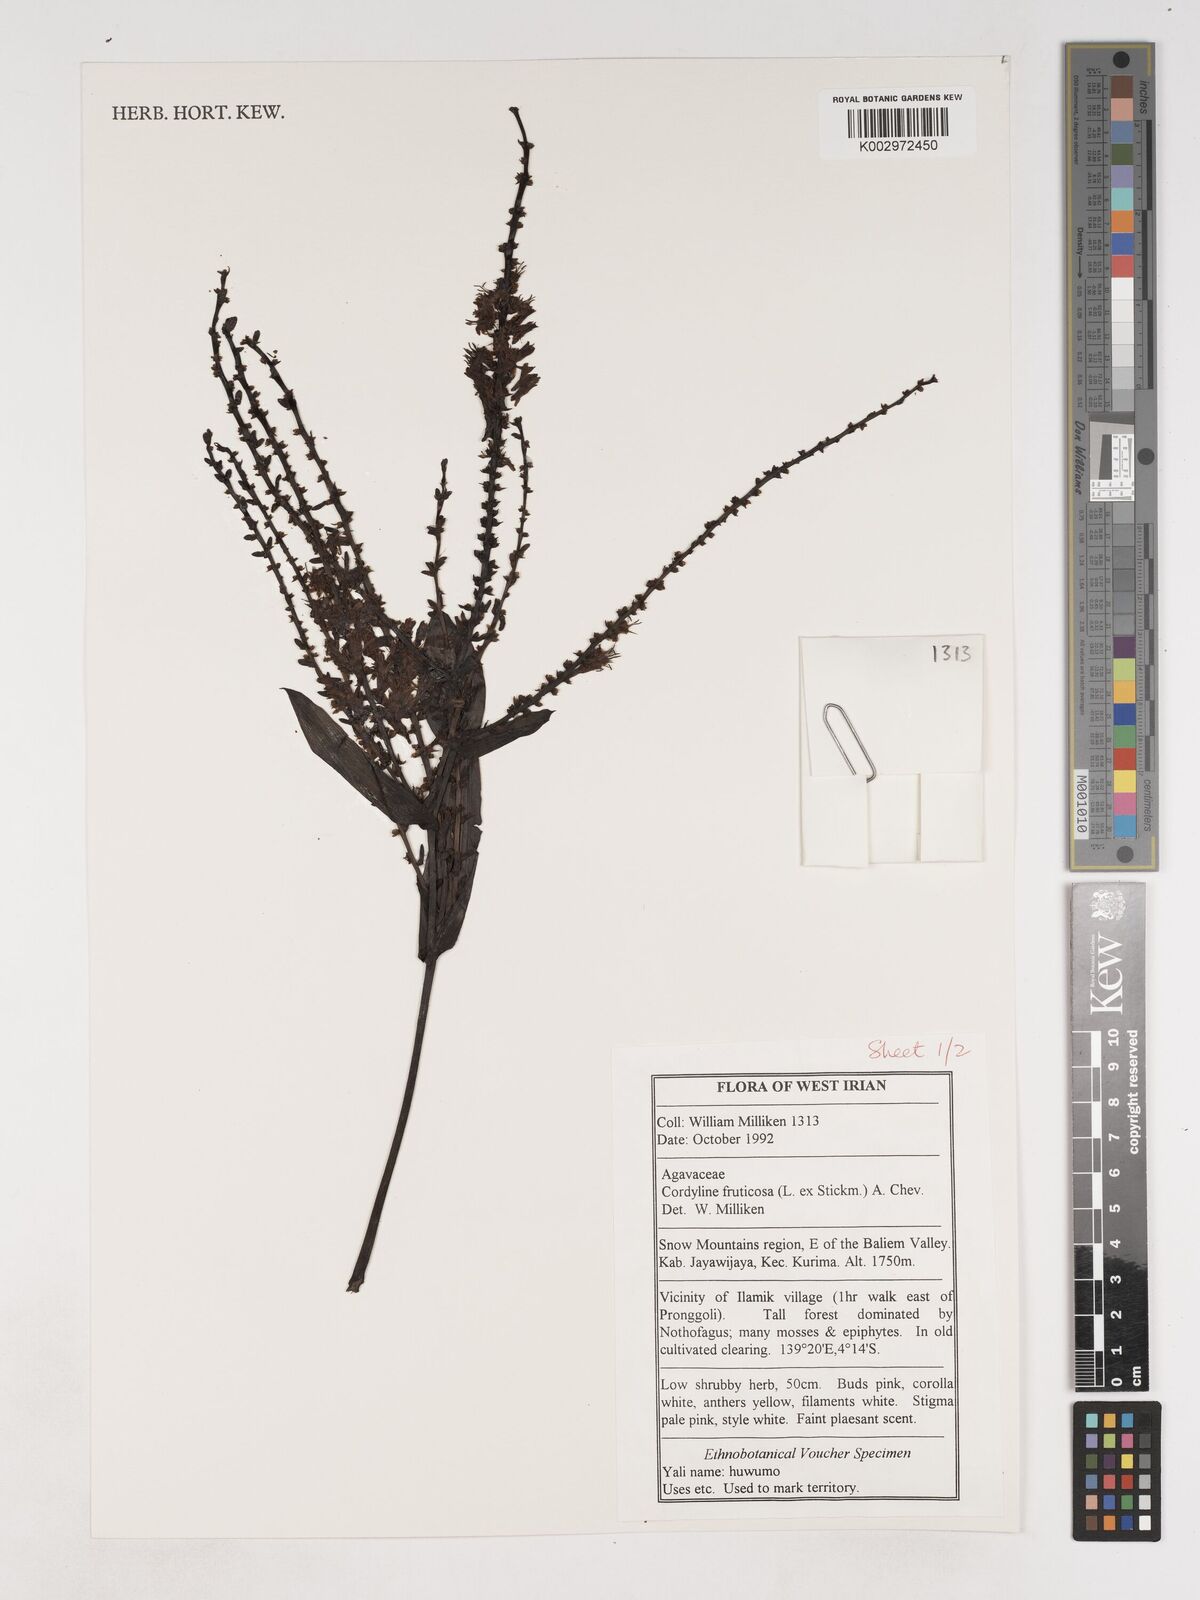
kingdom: Plantae
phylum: Tracheophyta
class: Liliopsida
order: Asparagales
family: Asparagaceae
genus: Cordyline
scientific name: Cordyline fruticosa
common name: Good-luck-plant
